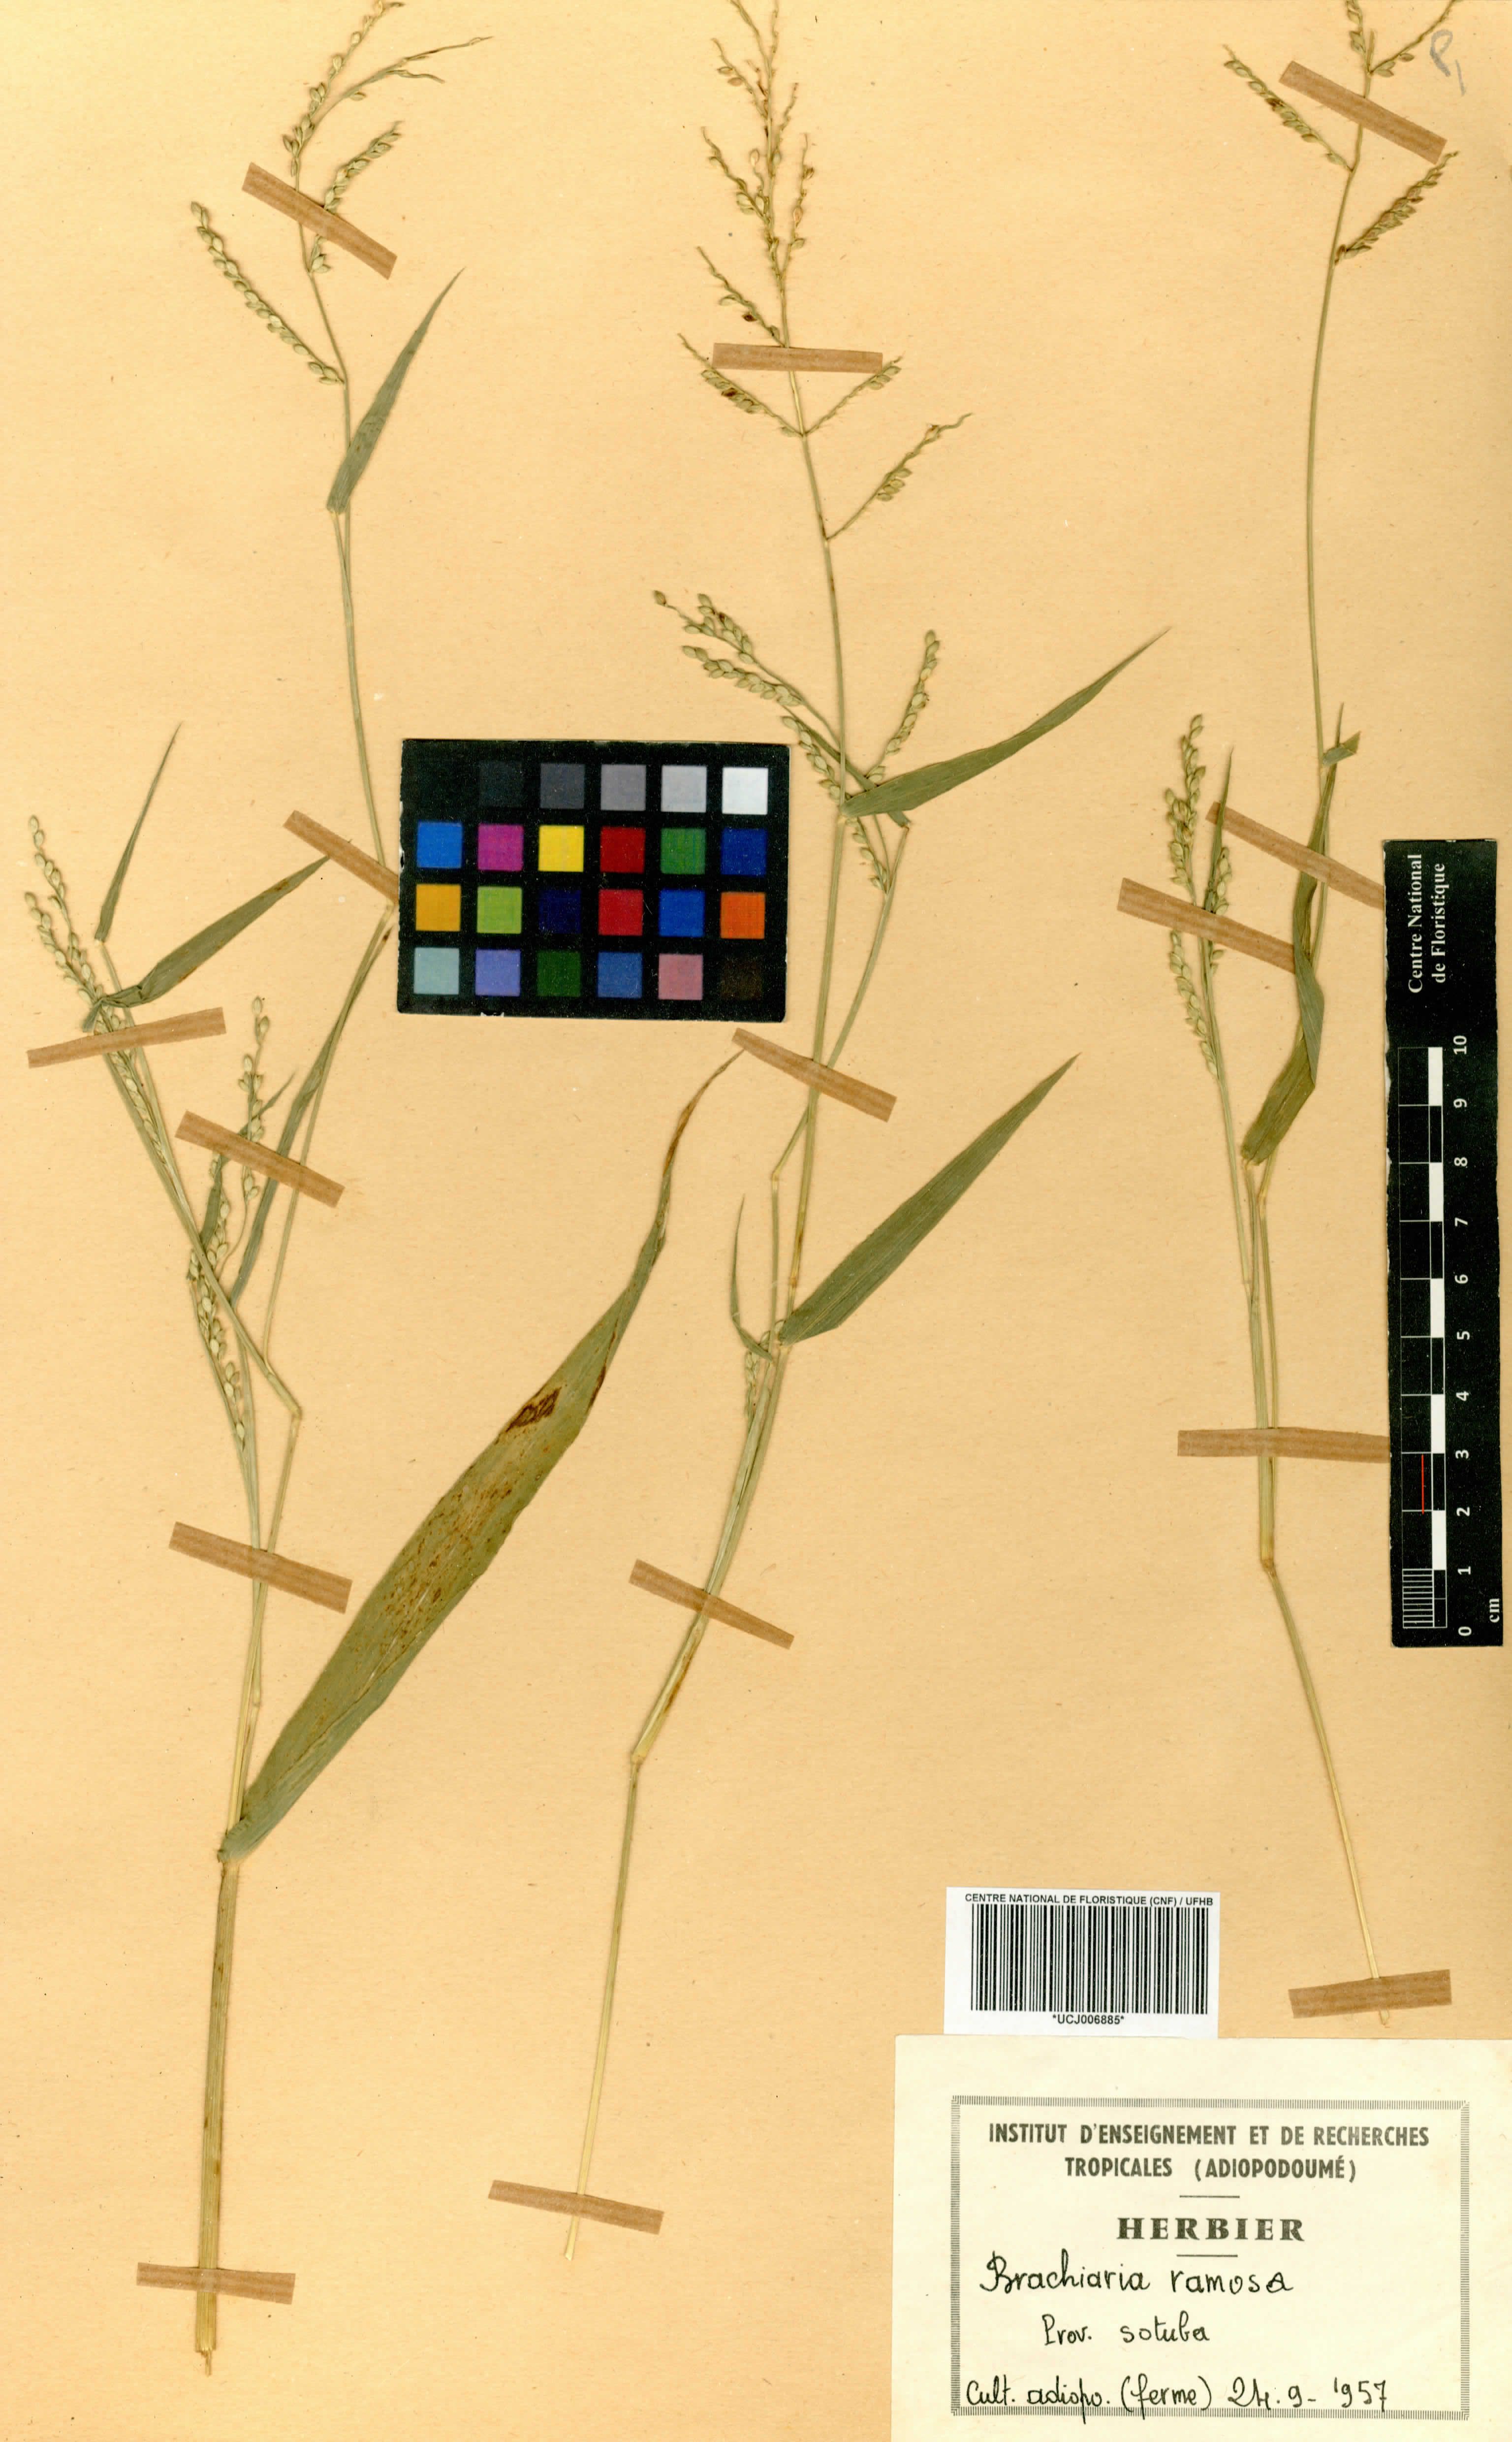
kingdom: Plantae
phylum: Tracheophyta
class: Liliopsida
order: Poales
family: Poaceae
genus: Urochloa
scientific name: Urochloa ramosa
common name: Browntop millet
